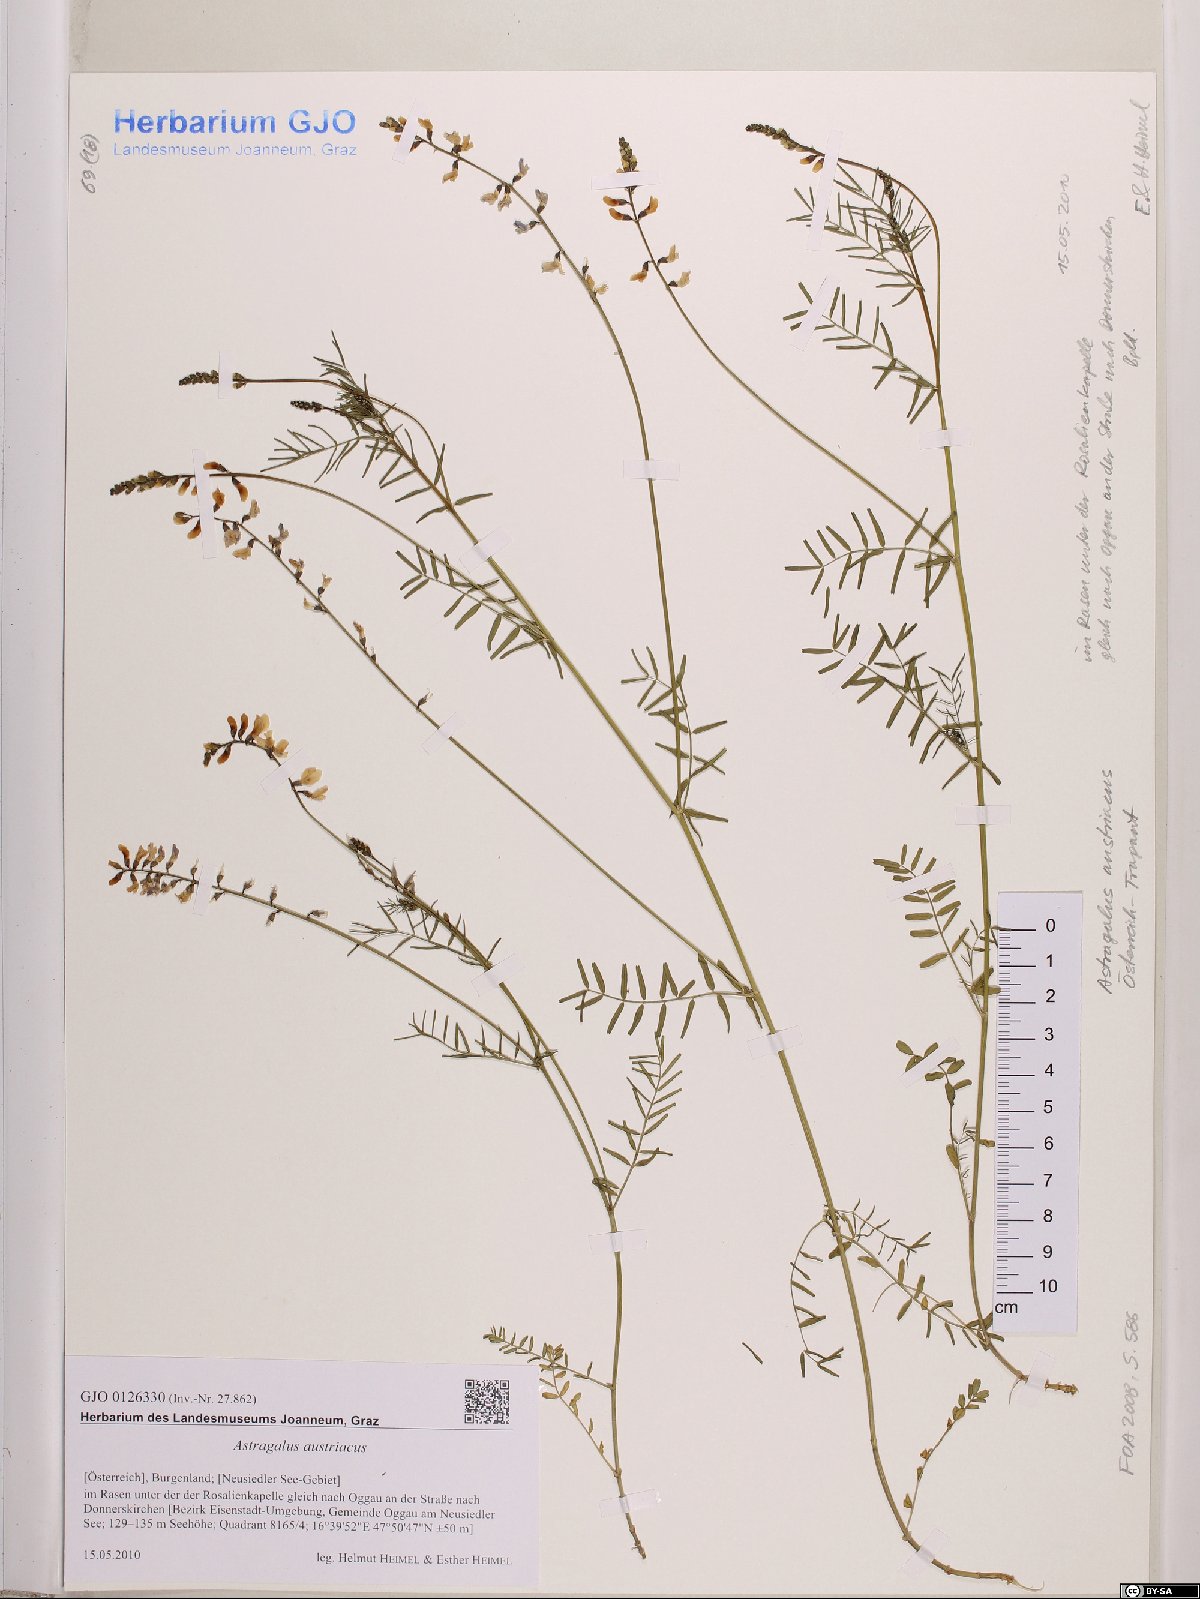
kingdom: Plantae
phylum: Tracheophyta
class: Magnoliopsida
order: Fabales
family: Fabaceae
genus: Astragalus
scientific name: Astragalus austriacus
